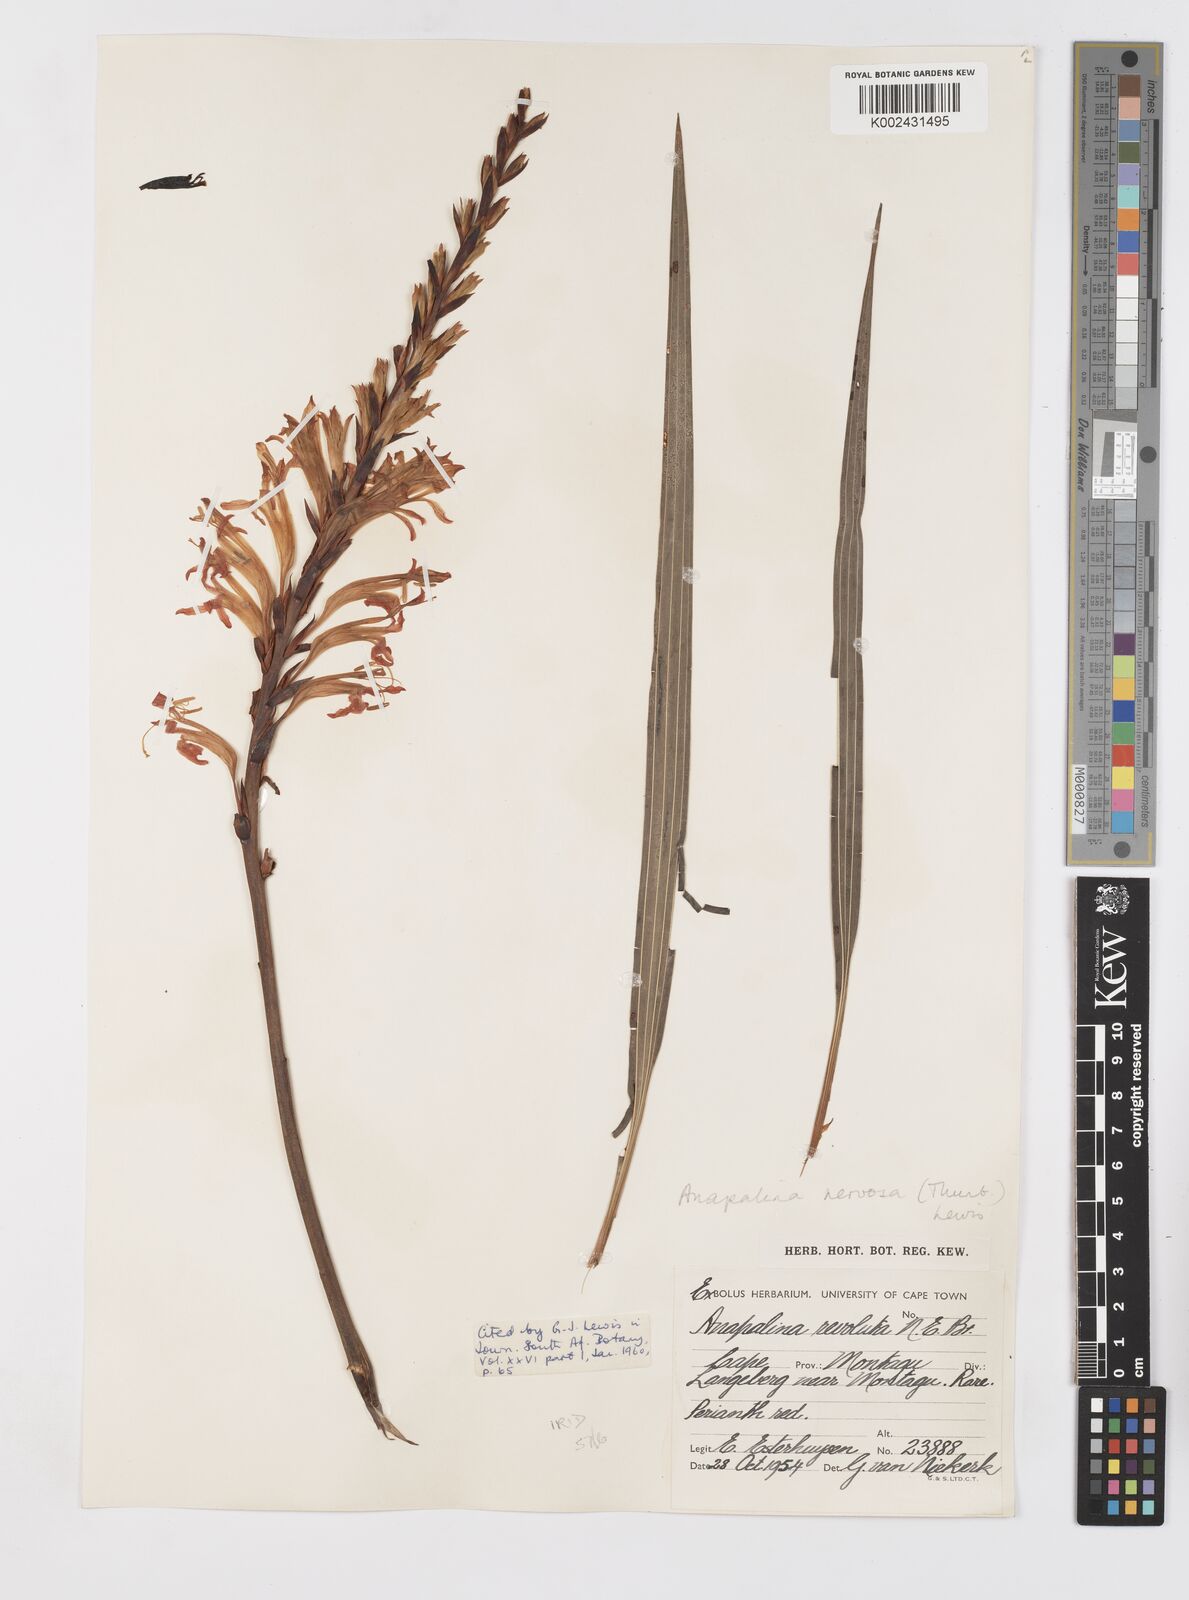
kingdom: Plantae
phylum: Tracheophyta
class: Liliopsida
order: Asparagales
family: Iridaceae
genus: Tritoniopsis
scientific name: Tritoniopsis nervosa
